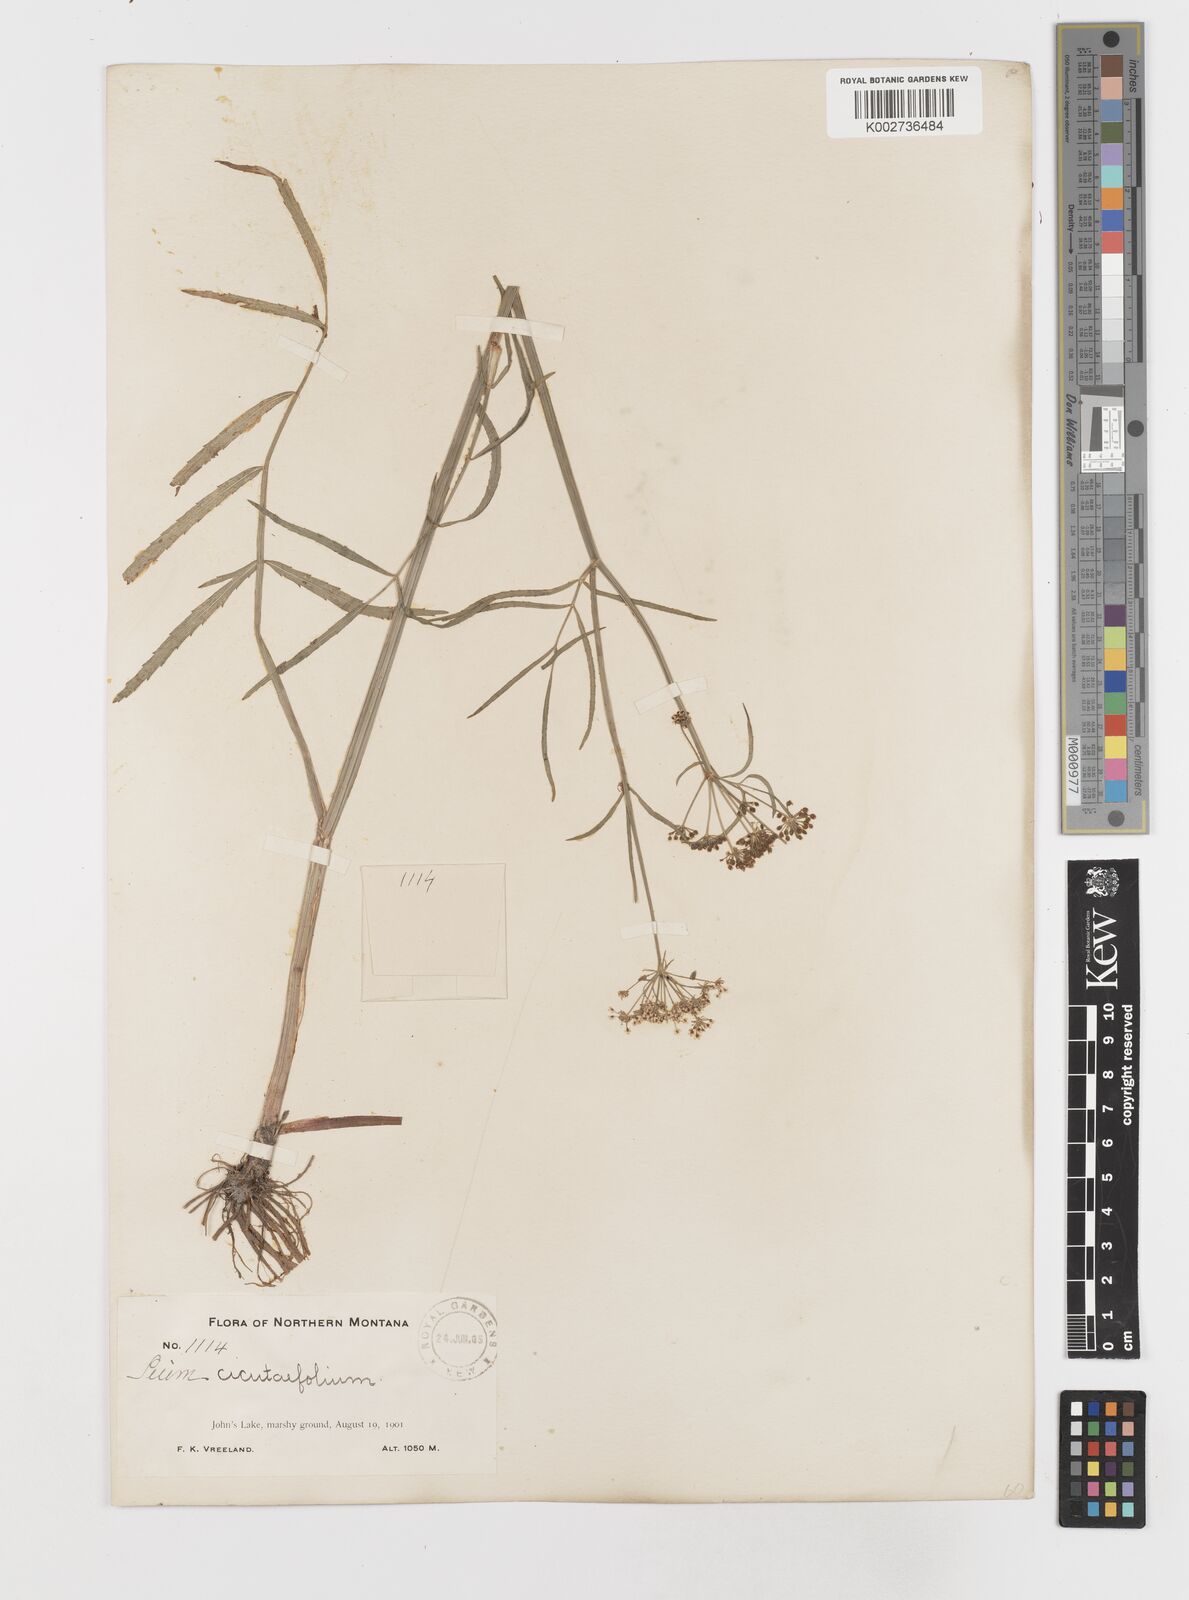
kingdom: Plantae
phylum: Tracheophyta
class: Magnoliopsida
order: Apiales
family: Apiaceae
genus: Sium
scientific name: Sium suave
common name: Hemlock water-parsnip
